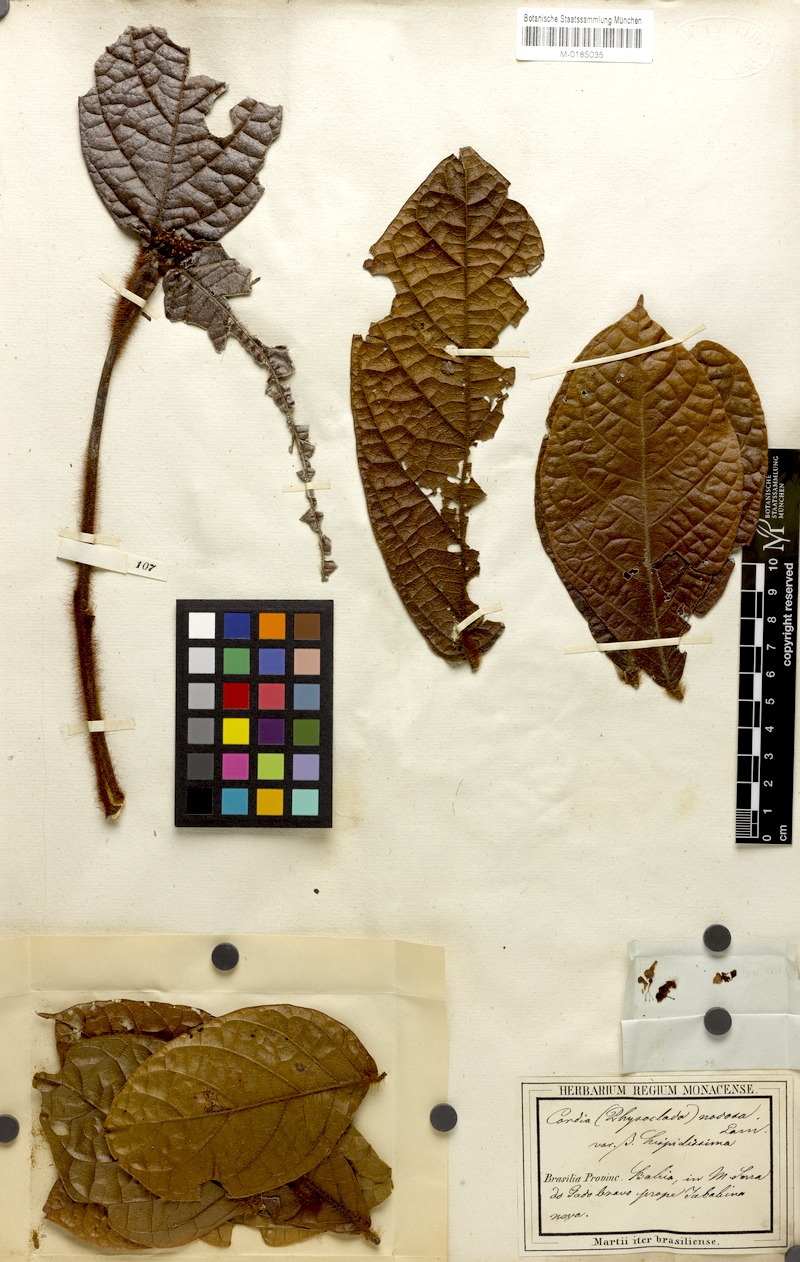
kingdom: Plantae
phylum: Tracheophyta
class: Magnoliopsida
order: Boraginales
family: Cordiaceae
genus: Cordia
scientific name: Cordia nodosa
